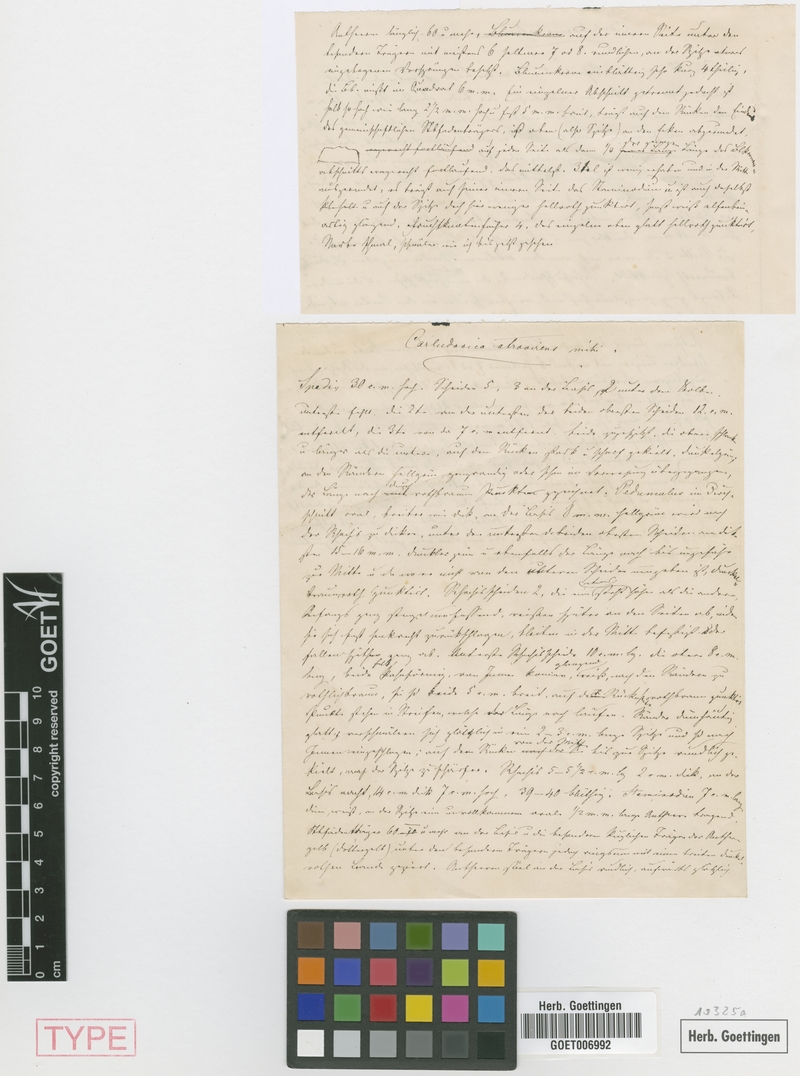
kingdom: Plantae
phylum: Tracheophyta
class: Liliopsida
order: Pandanales
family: Cyclanthaceae
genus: Dicranopygium
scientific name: Dicranopygium atrovirens
